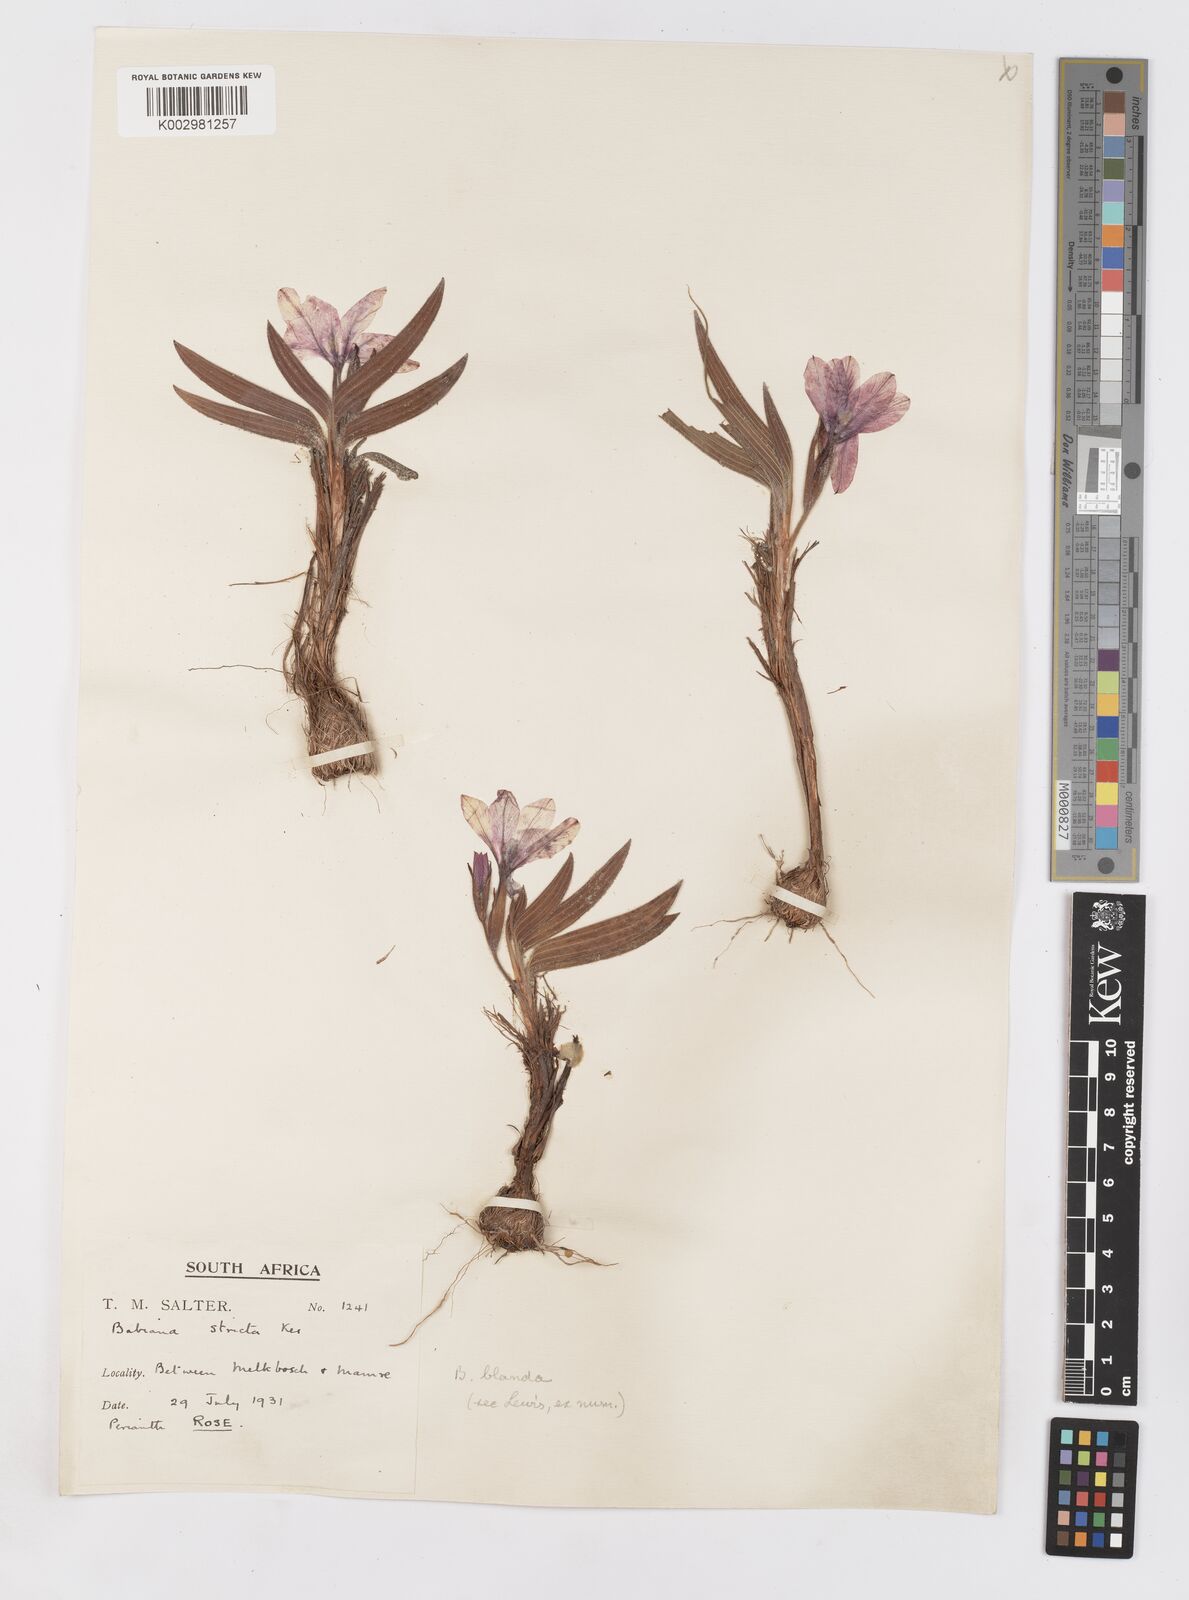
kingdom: Plantae
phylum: Tracheophyta
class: Liliopsida
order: Asparagales
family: Iridaceae
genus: Babiana
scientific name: Babiana blanda
